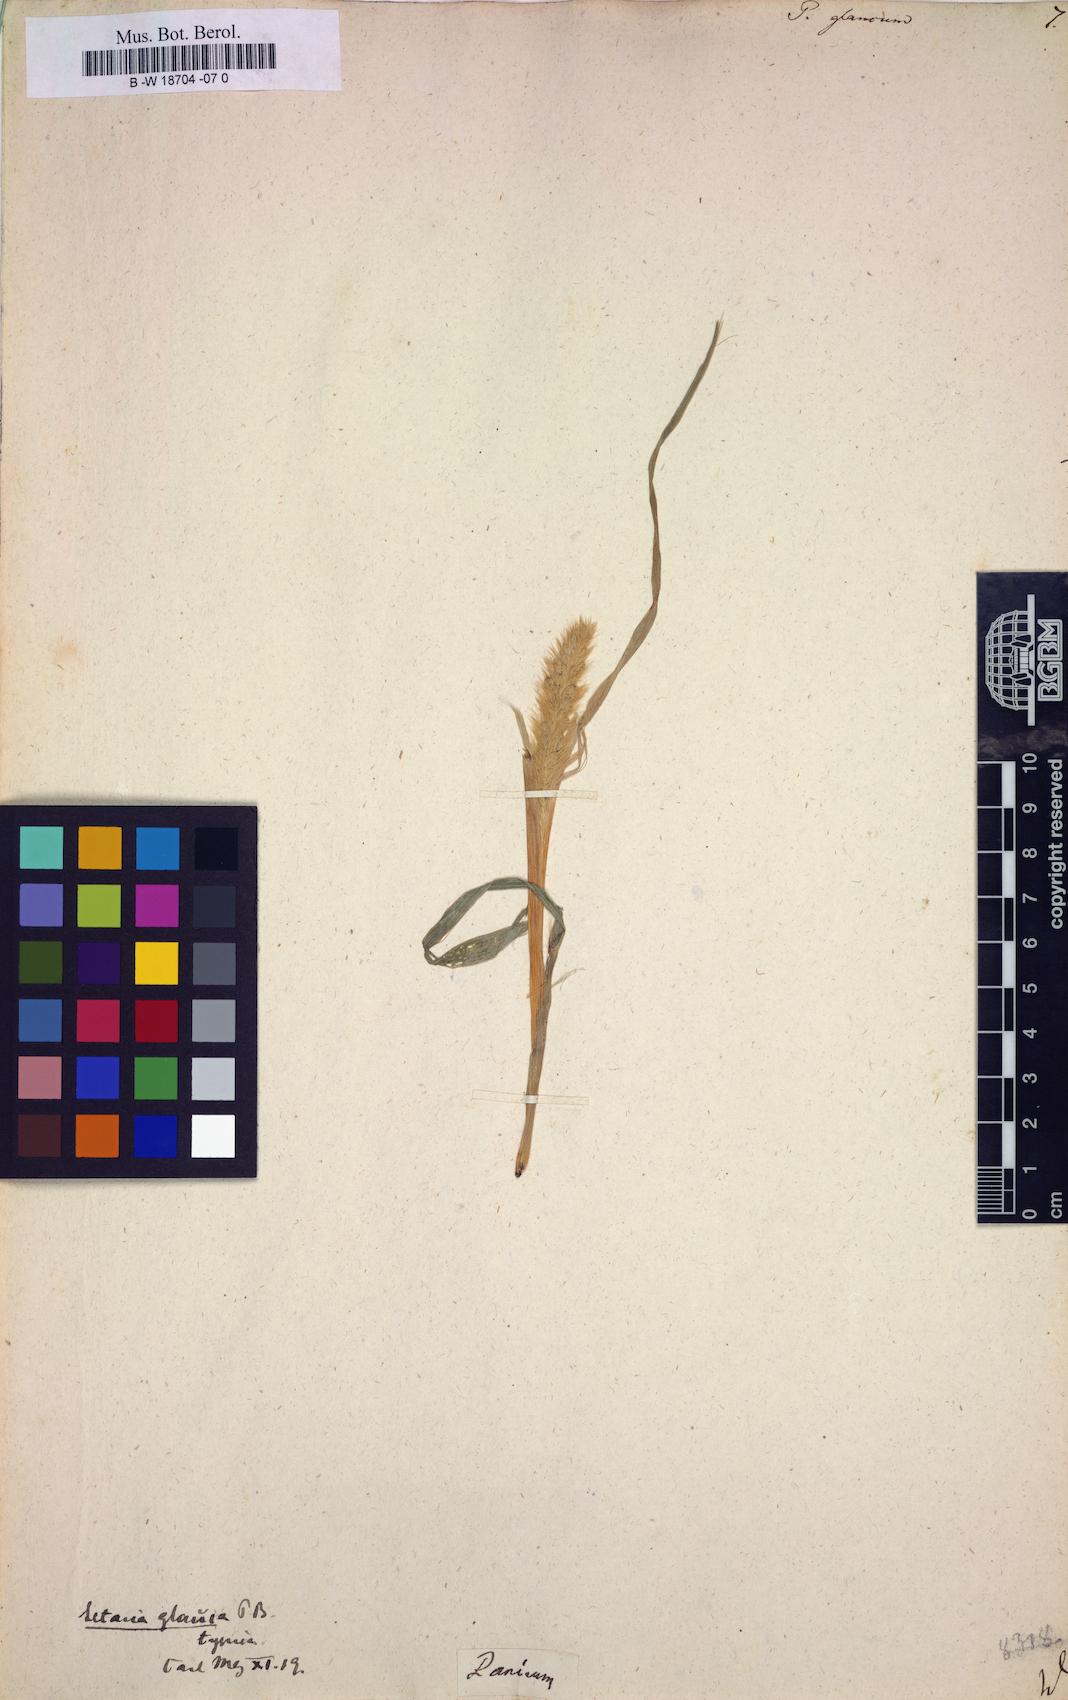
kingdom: Plantae
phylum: Tracheophyta
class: Liliopsida
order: Poales
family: Poaceae
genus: Panicum
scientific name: Panicum glaucum
